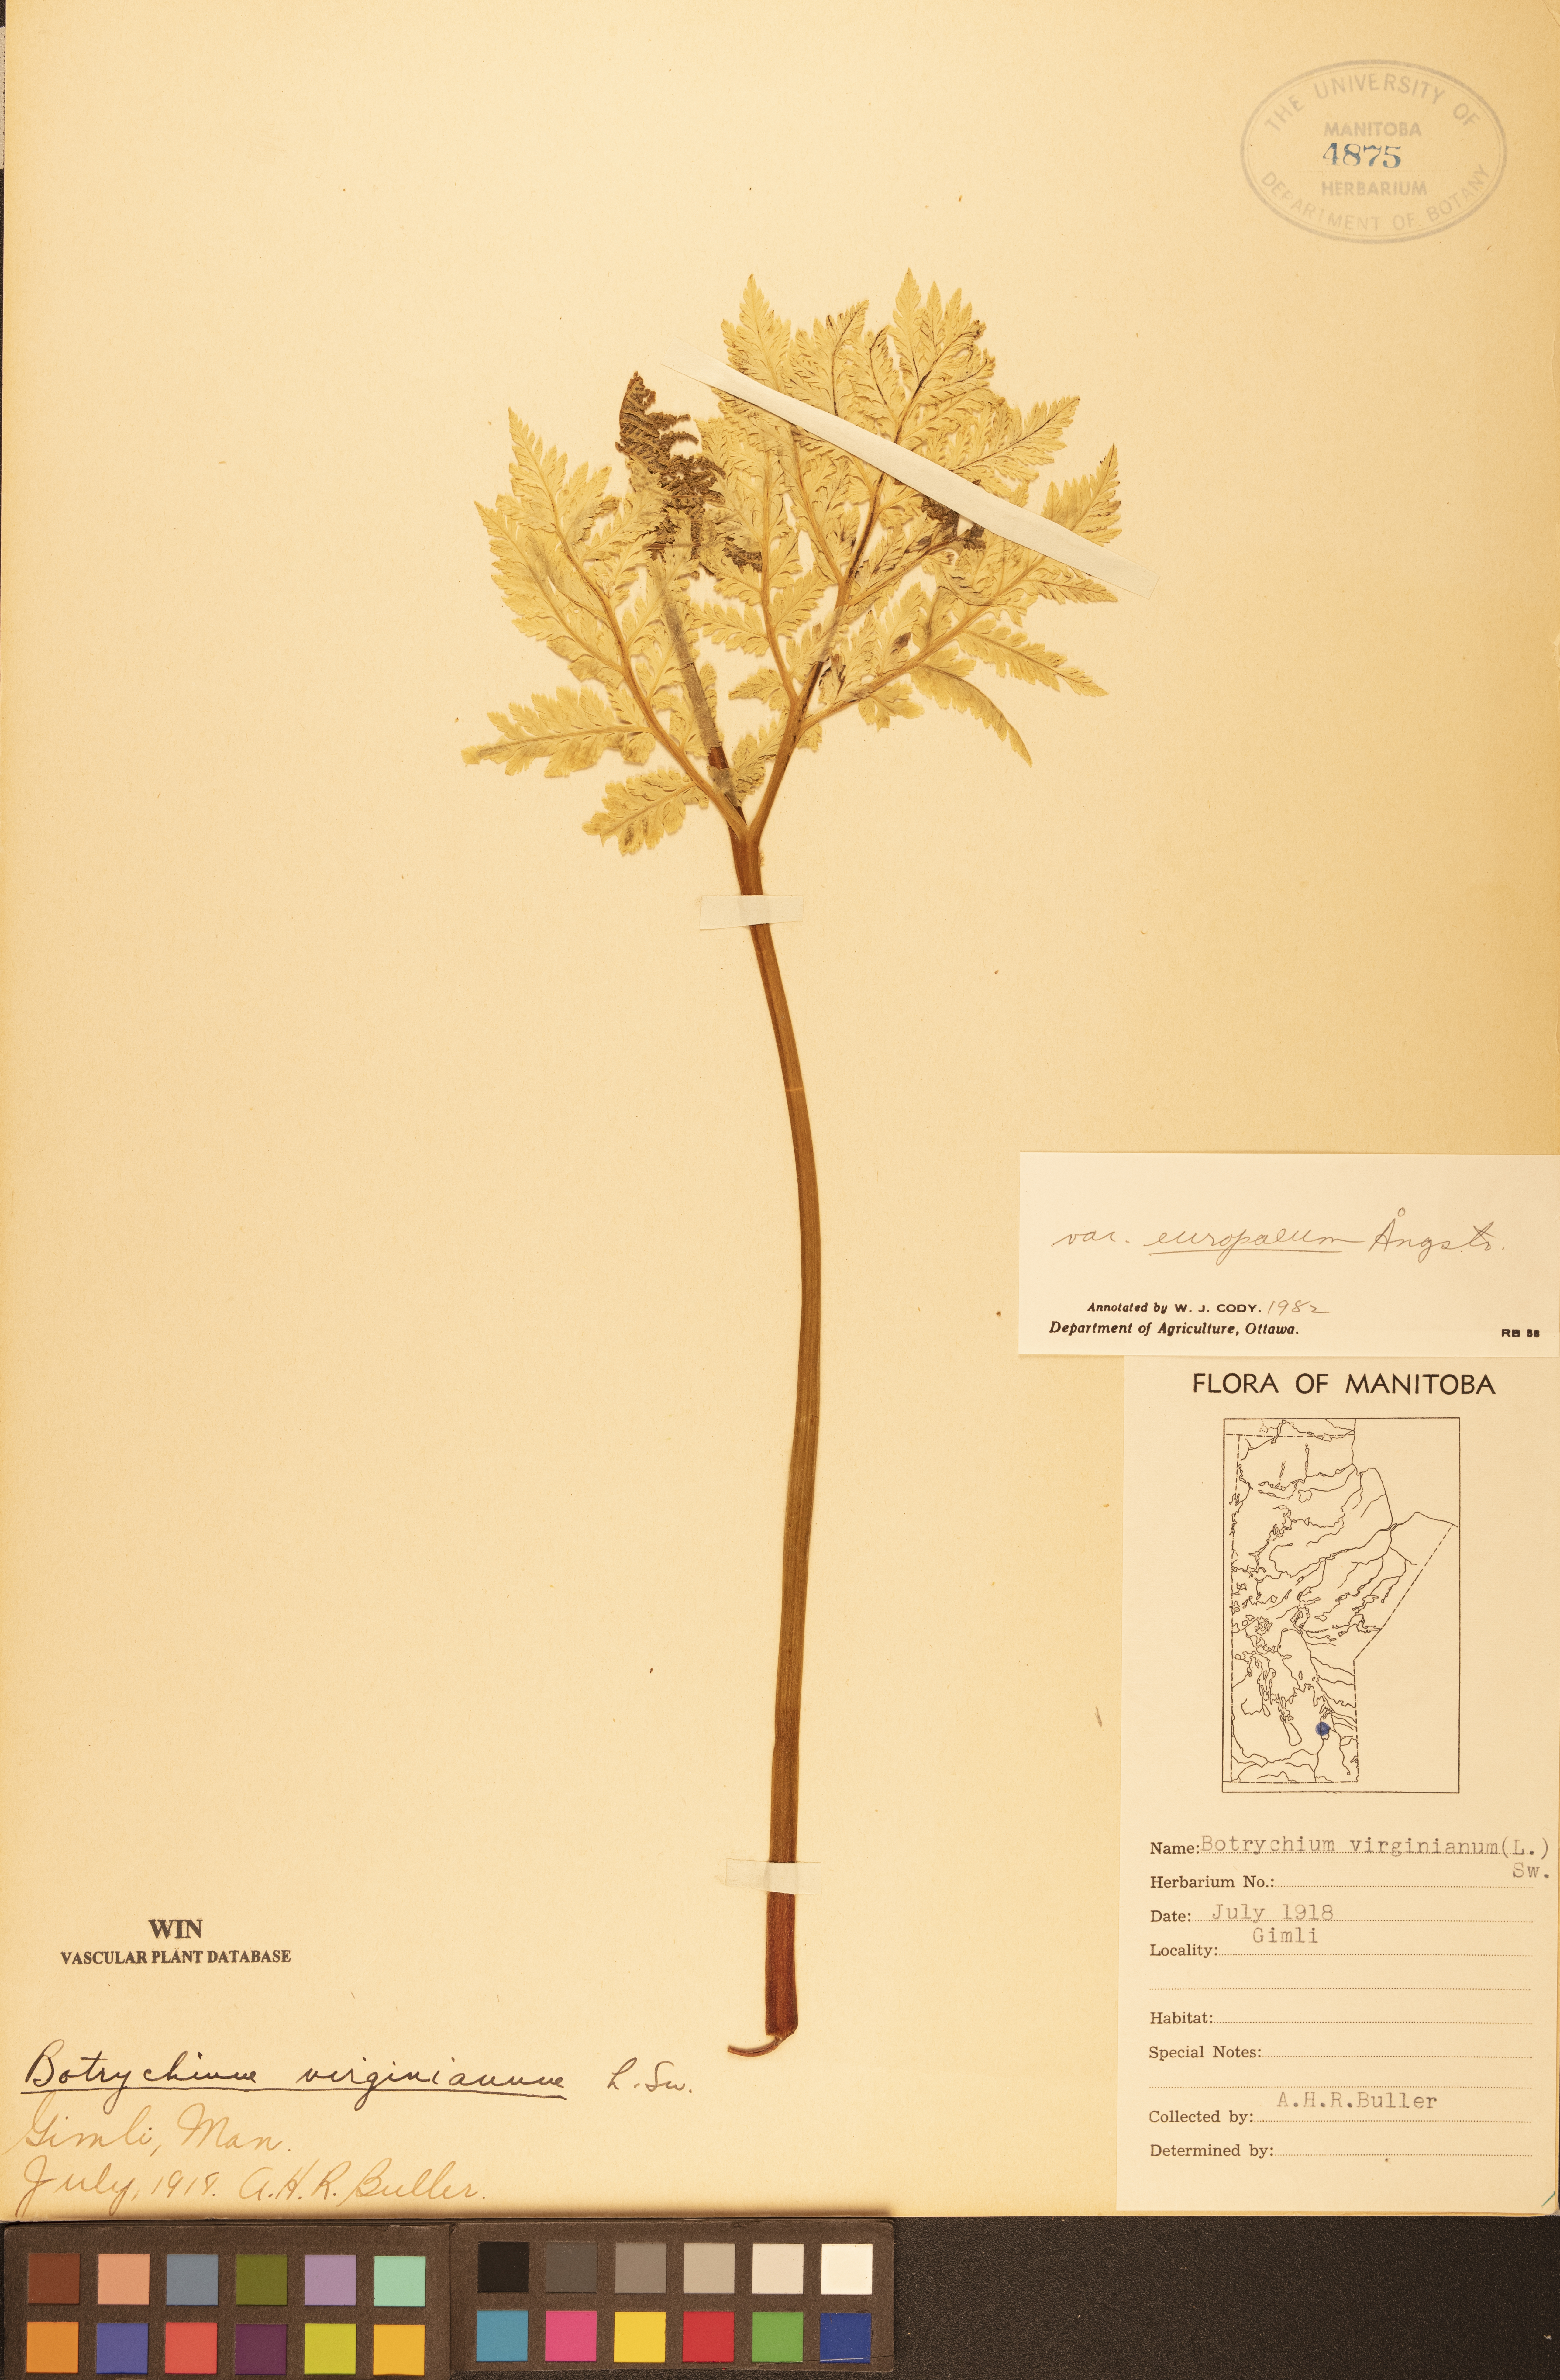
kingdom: Plantae
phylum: Tracheophyta
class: Polypodiopsida
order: Ophioglossales
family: Ophioglossaceae
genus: Botrypus
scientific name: Botrypus virginianus
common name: Common grapefern
